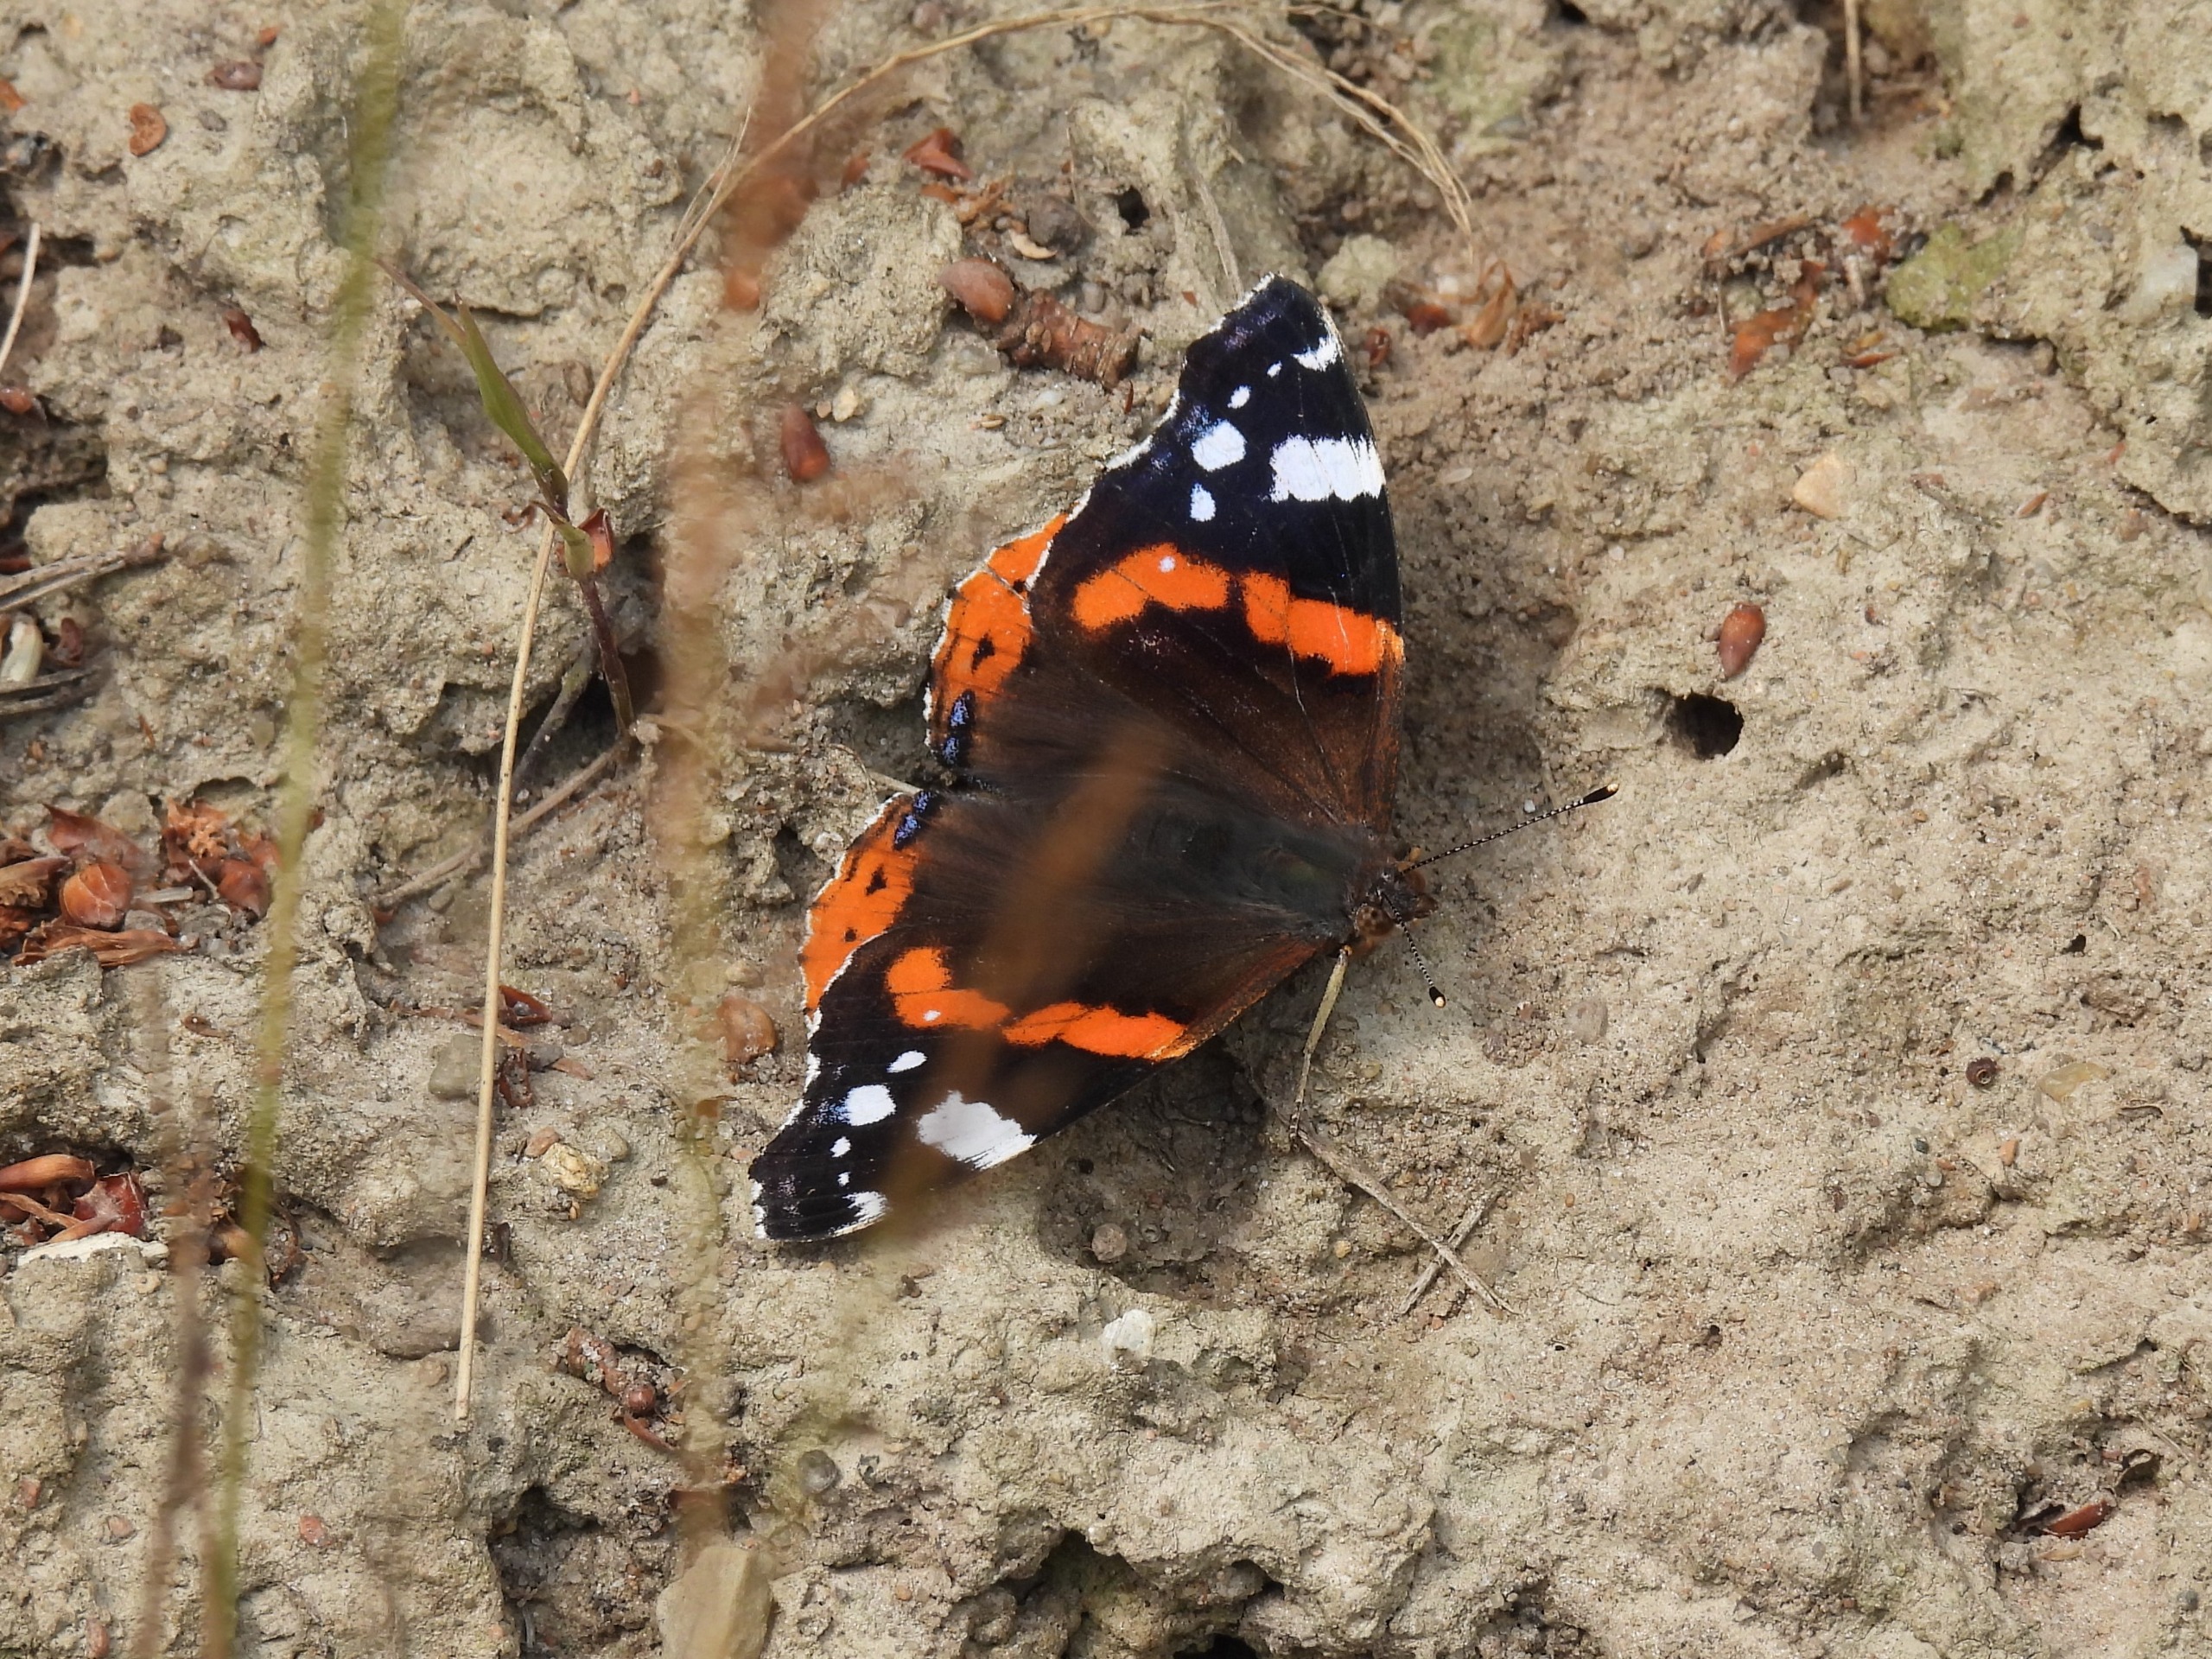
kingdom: Animalia
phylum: Arthropoda
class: Insecta
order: Lepidoptera
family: Nymphalidae
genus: Vanessa
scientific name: Vanessa atalanta
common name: Admiral
